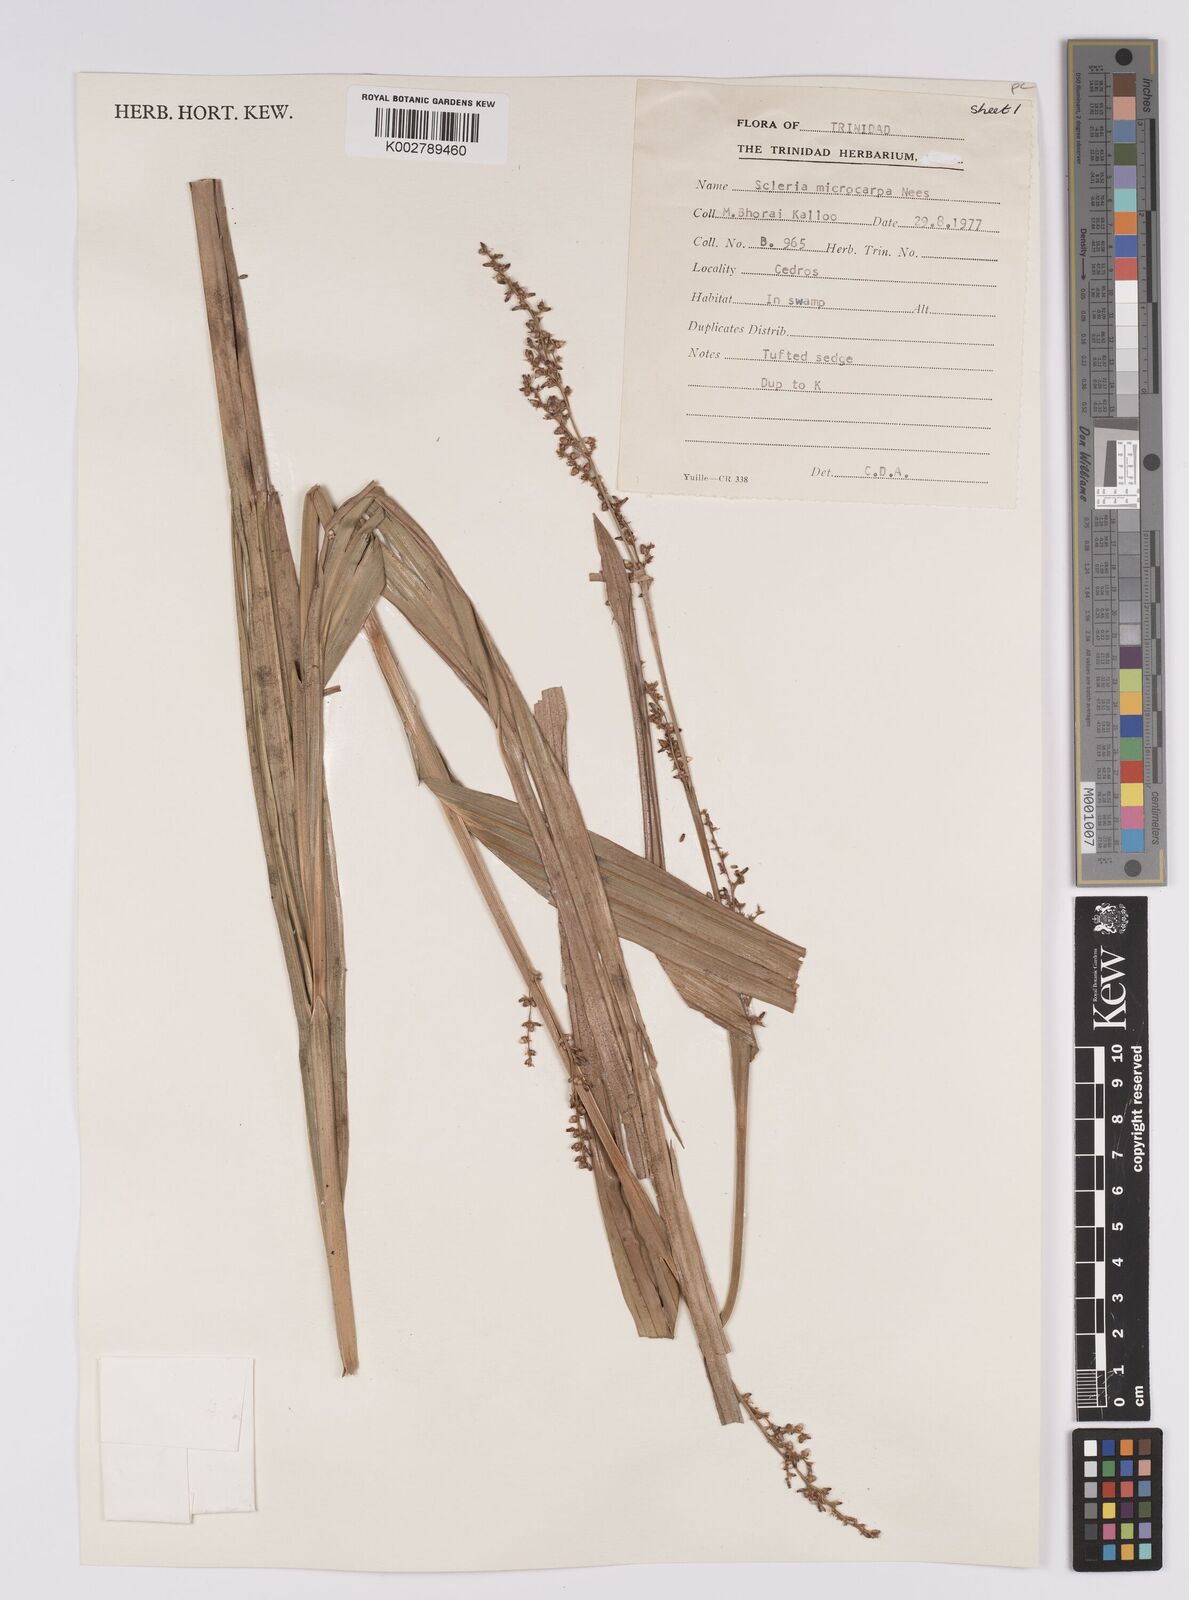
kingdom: Plantae
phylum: Tracheophyta
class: Liliopsida
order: Poales
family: Cyperaceae
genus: Scleria
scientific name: Scleria microcarpa
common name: Tropical nutrush
